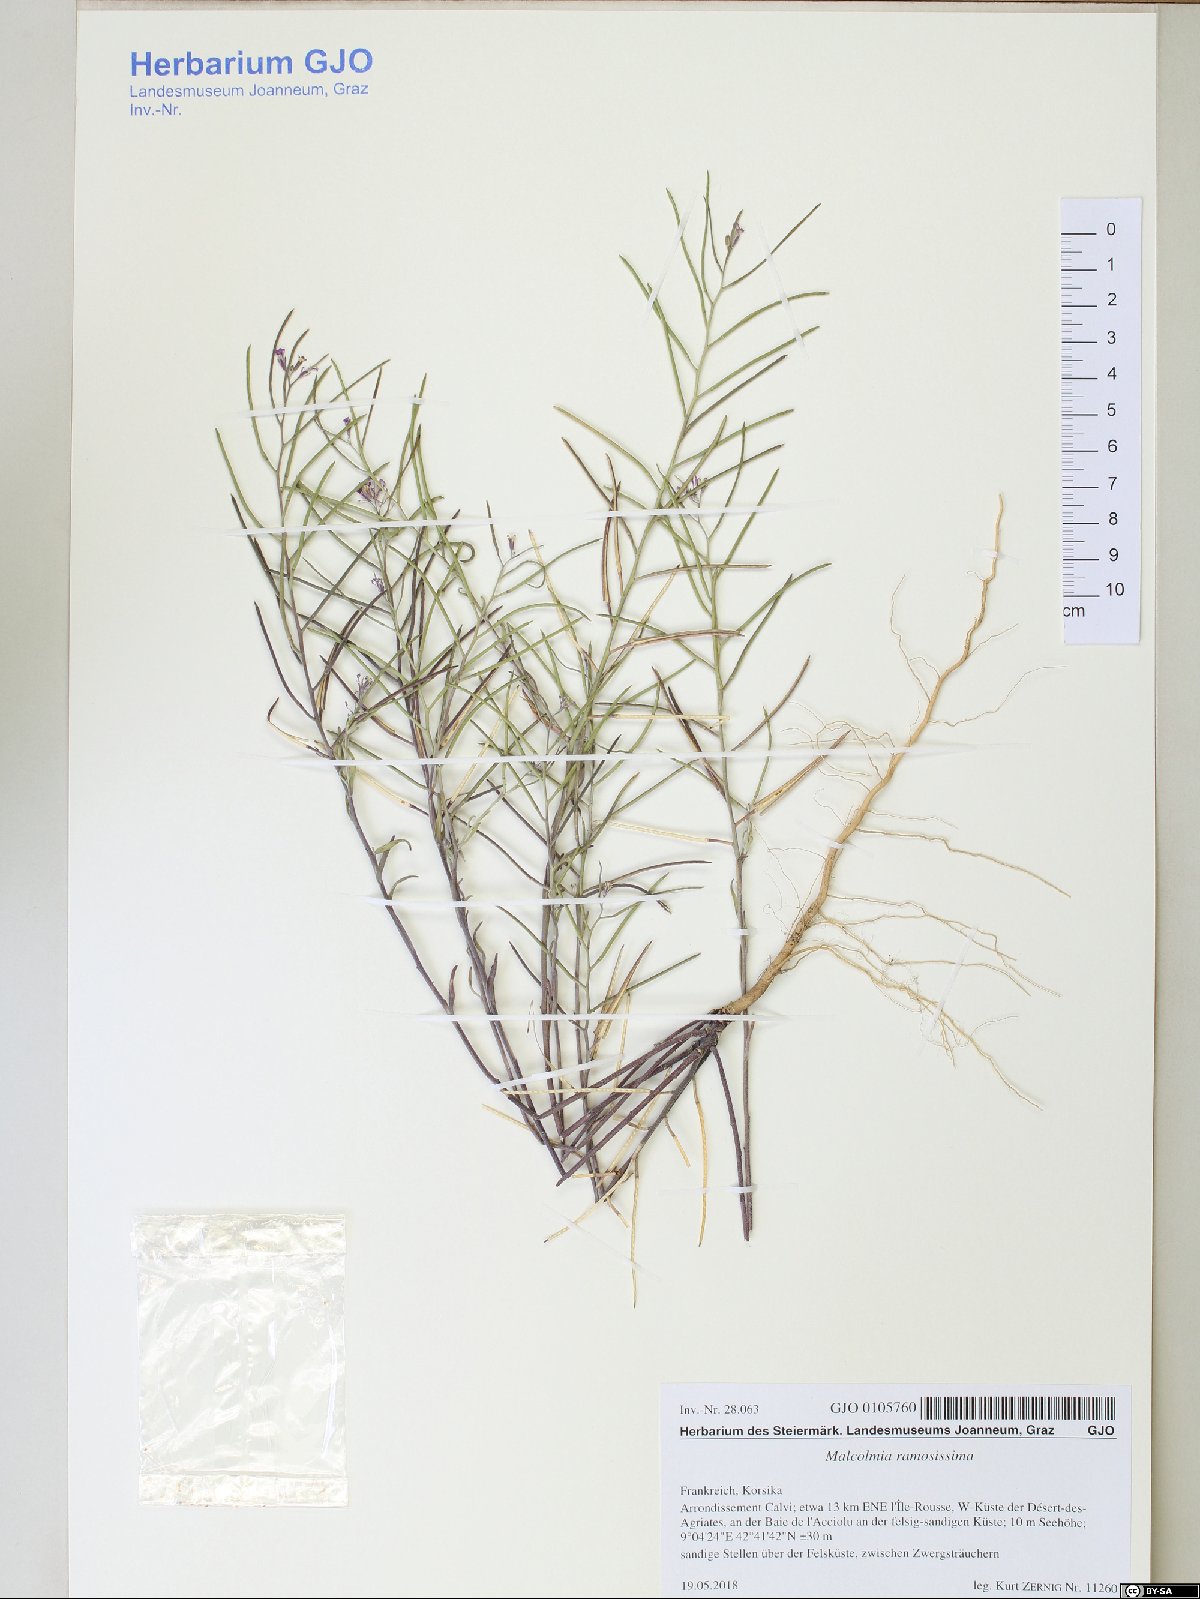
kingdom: Plantae
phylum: Tracheophyta
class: Magnoliopsida
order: Brassicales
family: Brassicaceae
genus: Marcuskochia
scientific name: Marcuskochia ramosissima
